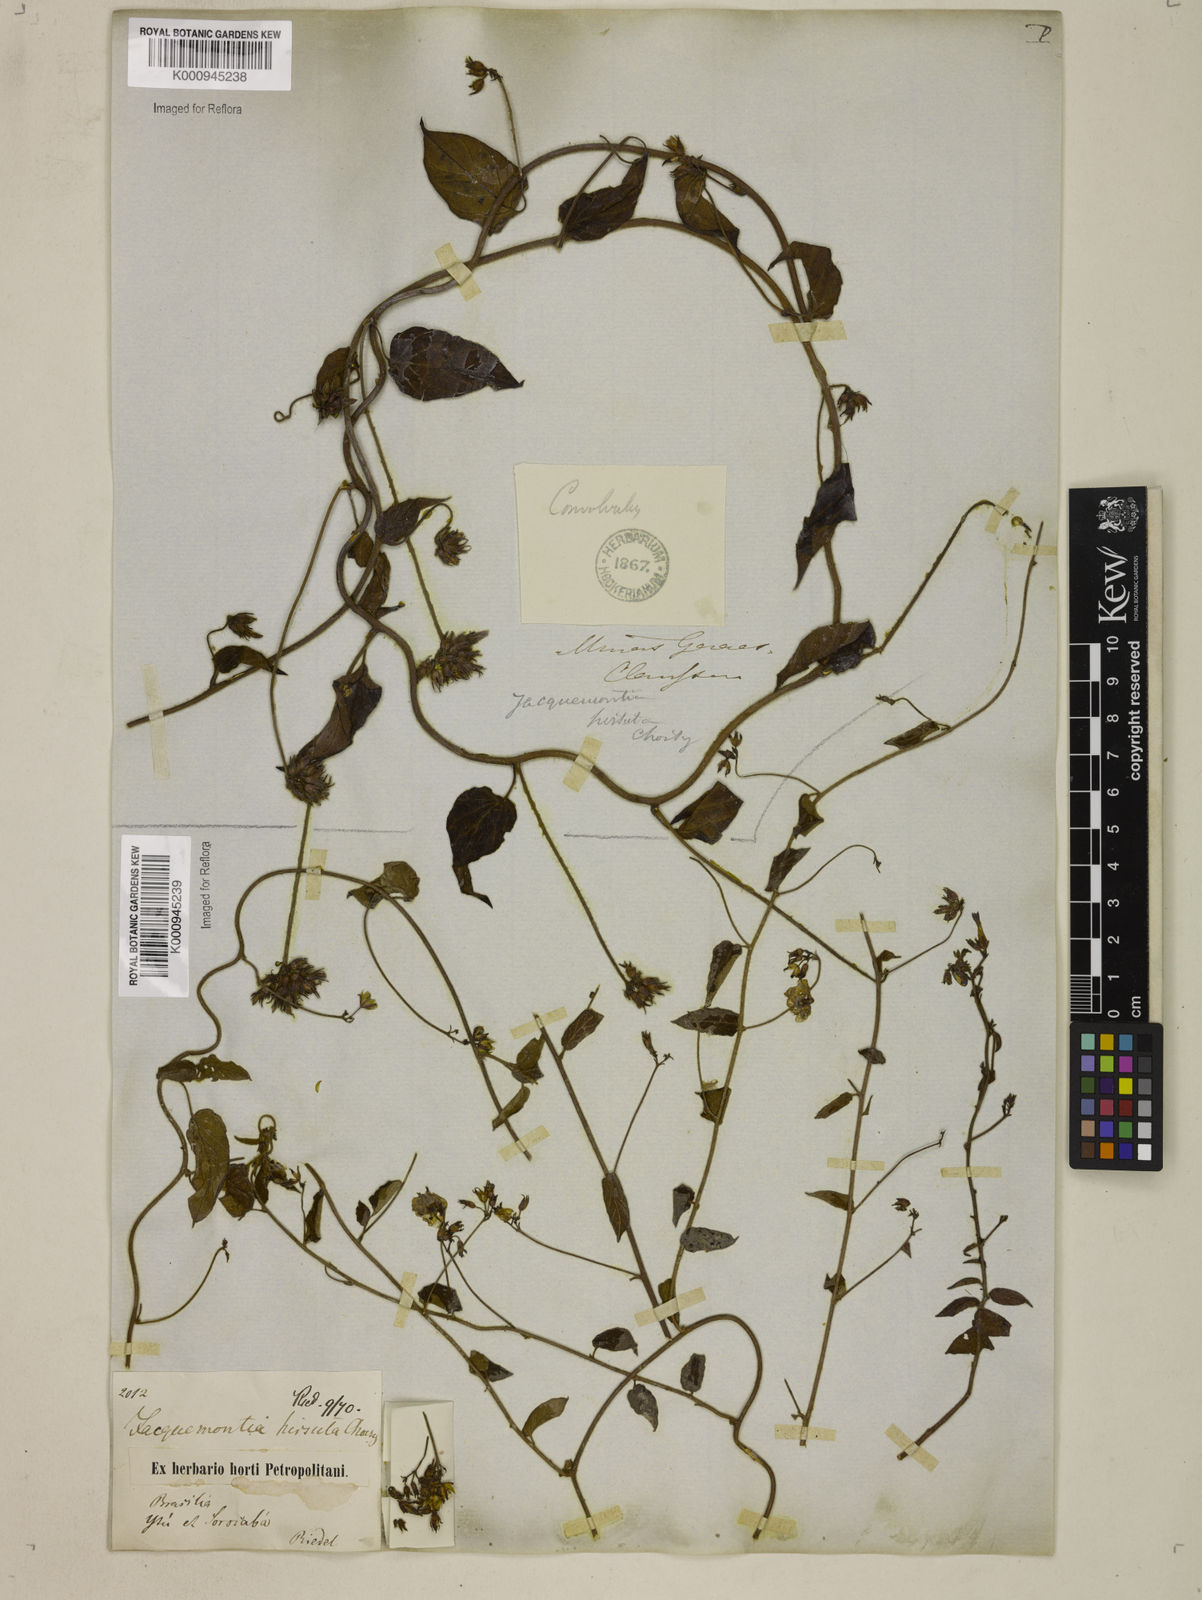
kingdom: Plantae
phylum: Tracheophyta
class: Magnoliopsida
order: Solanales
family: Convolvulaceae
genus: Jacquemontia
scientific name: Jacquemontia sphaerostigma
